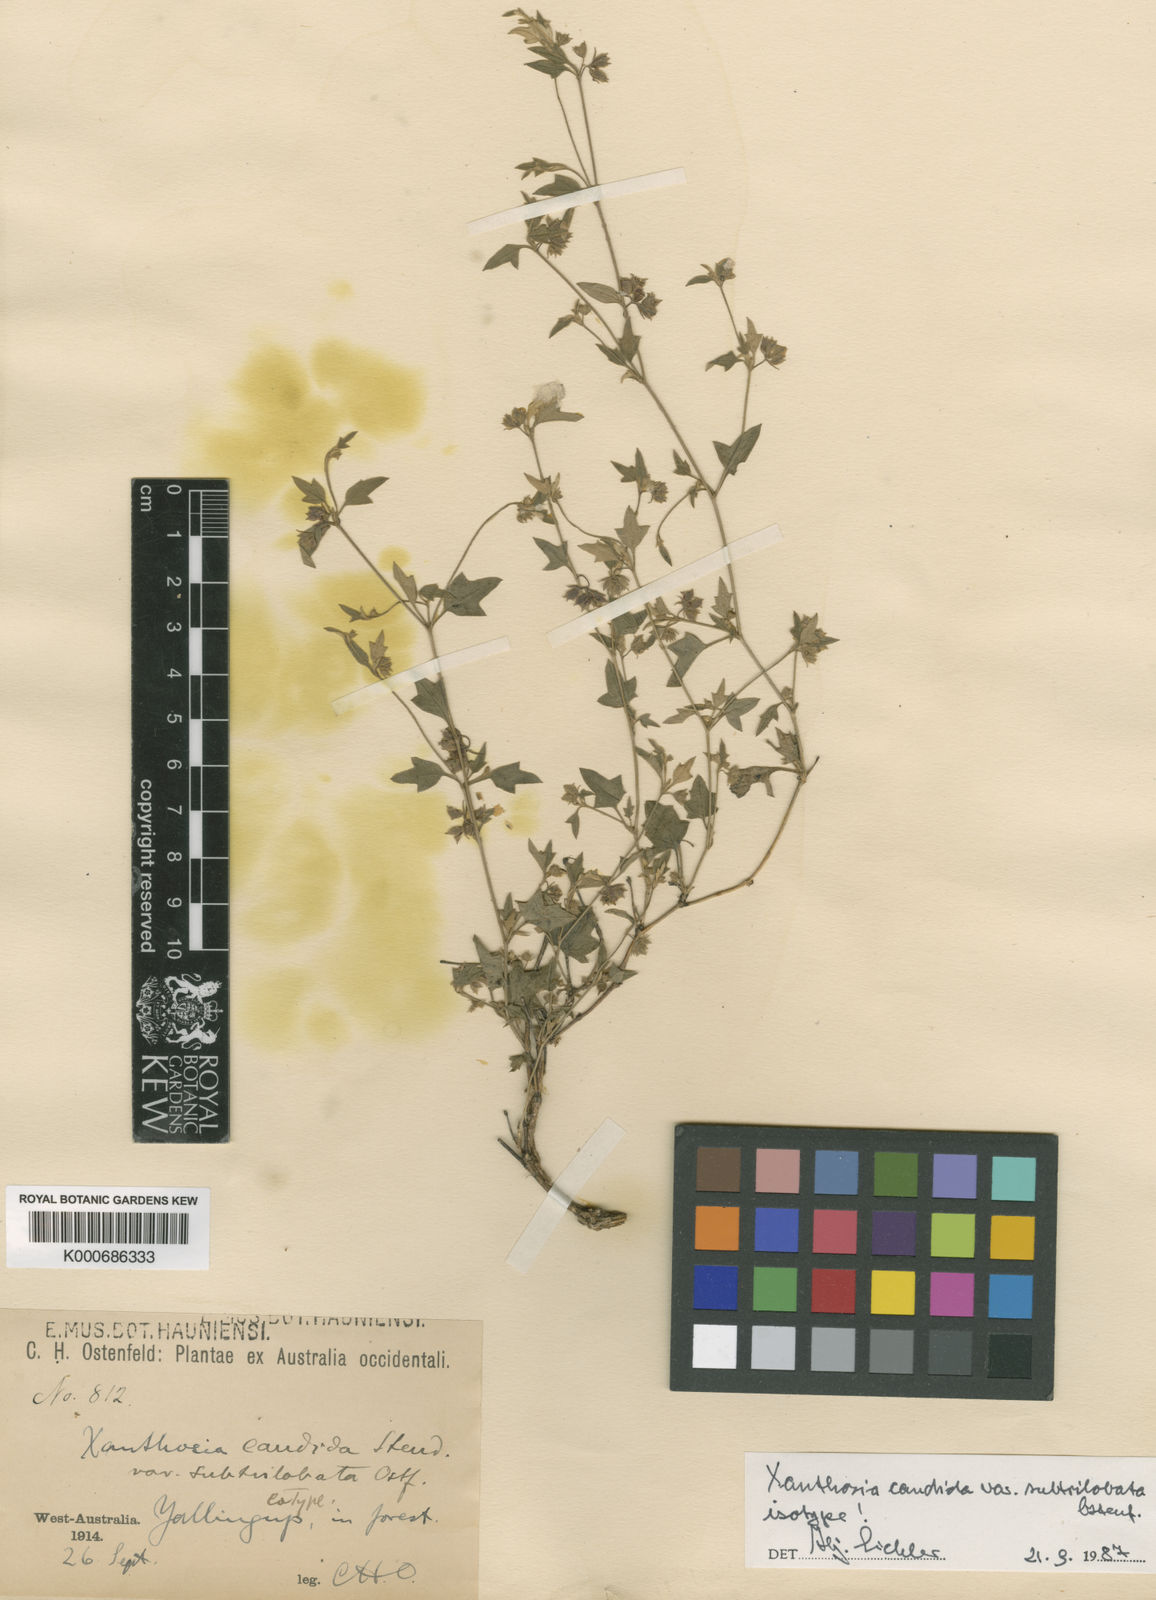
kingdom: Plantae
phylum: Tracheophyta
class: Magnoliopsida
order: Apiales
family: Apiaceae
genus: Xanthosia
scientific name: Xanthosia candida
